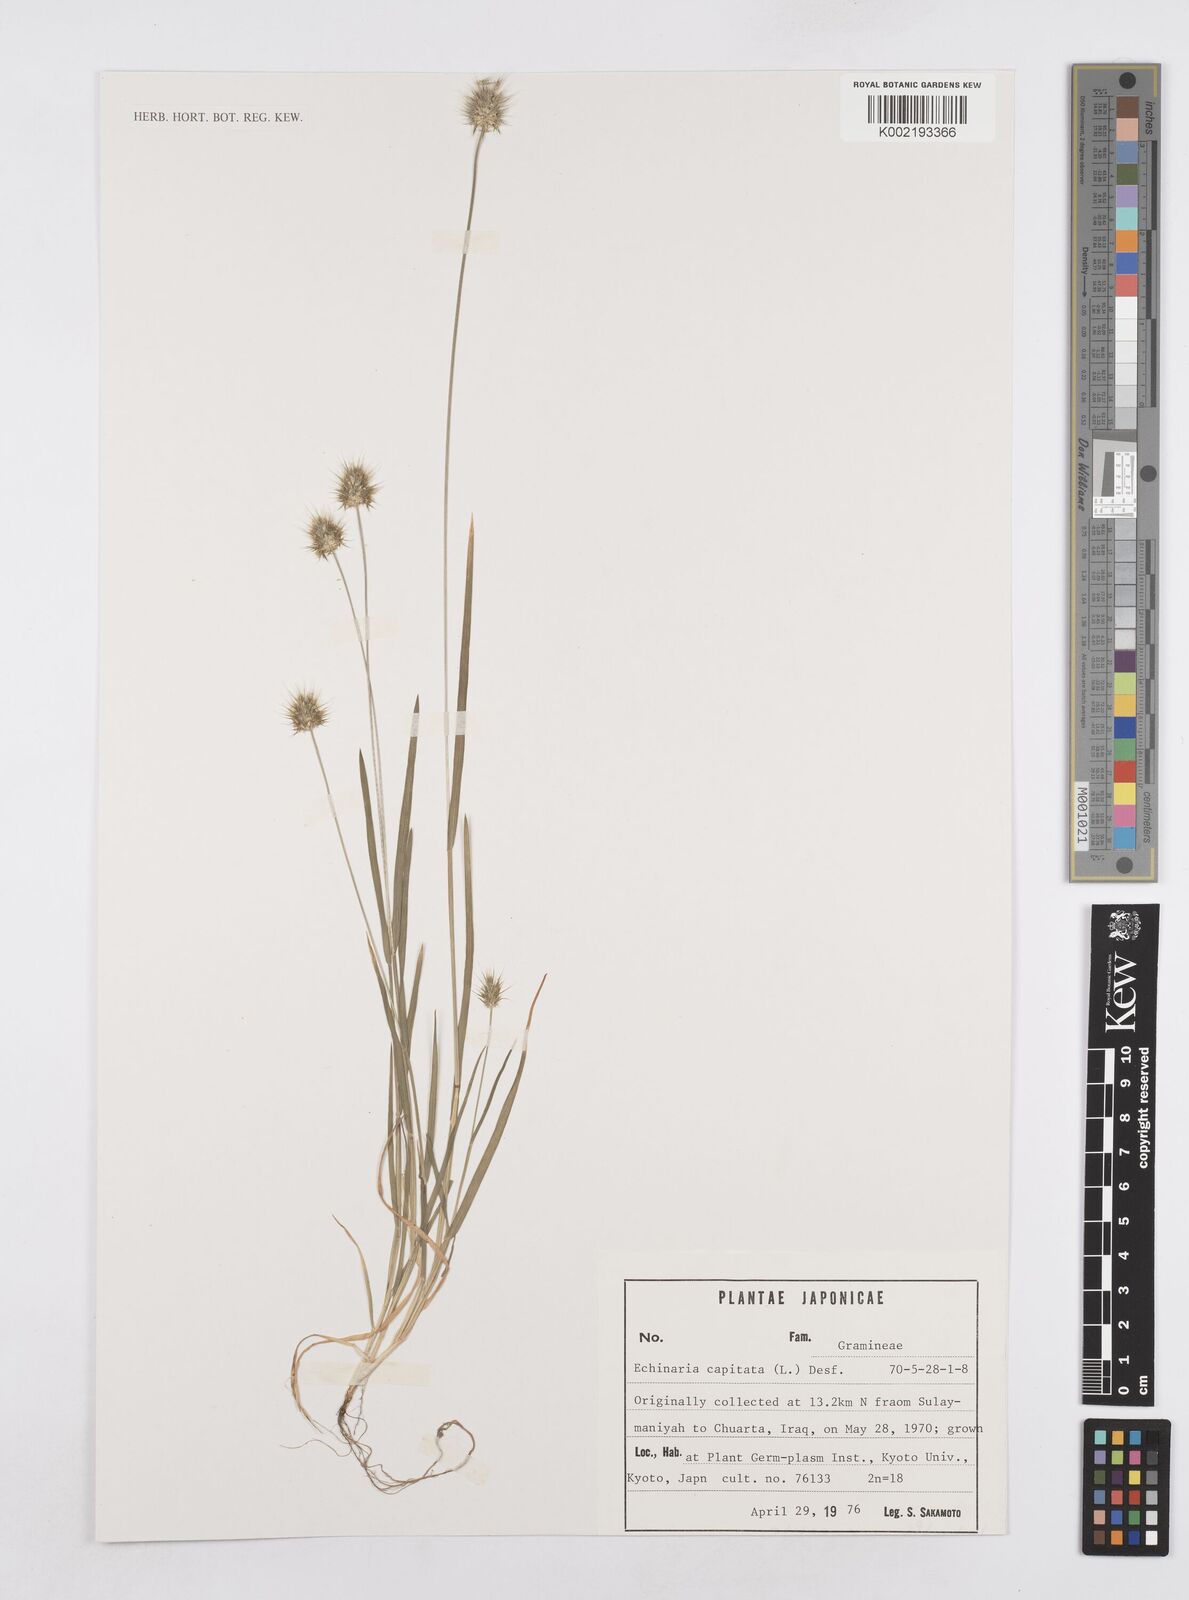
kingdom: Plantae
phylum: Tracheophyta
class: Liliopsida
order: Poales
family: Poaceae
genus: Echinaria
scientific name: Echinaria capitata
